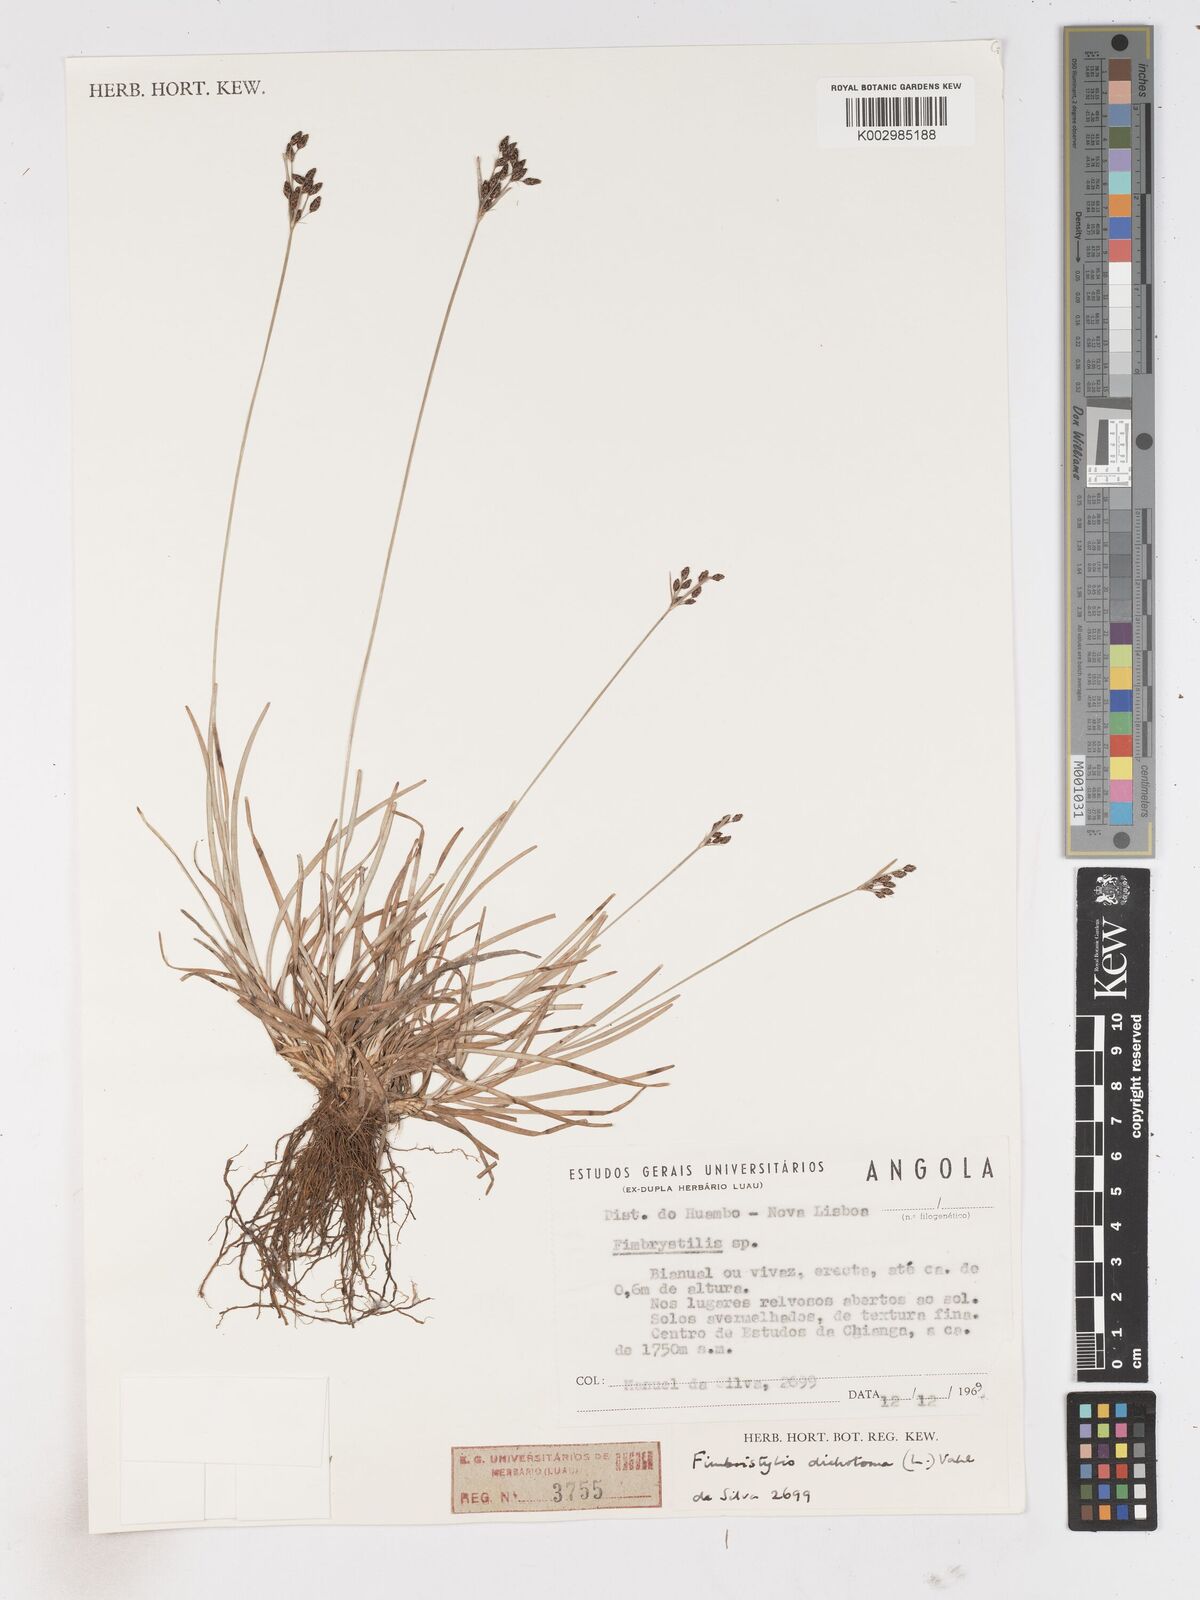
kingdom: Plantae
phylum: Tracheophyta
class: Liliopsida
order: Poales
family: Cyperaceae
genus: Fimbristylis
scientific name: Fimbristylis dichotoma
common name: Forked fimbry
